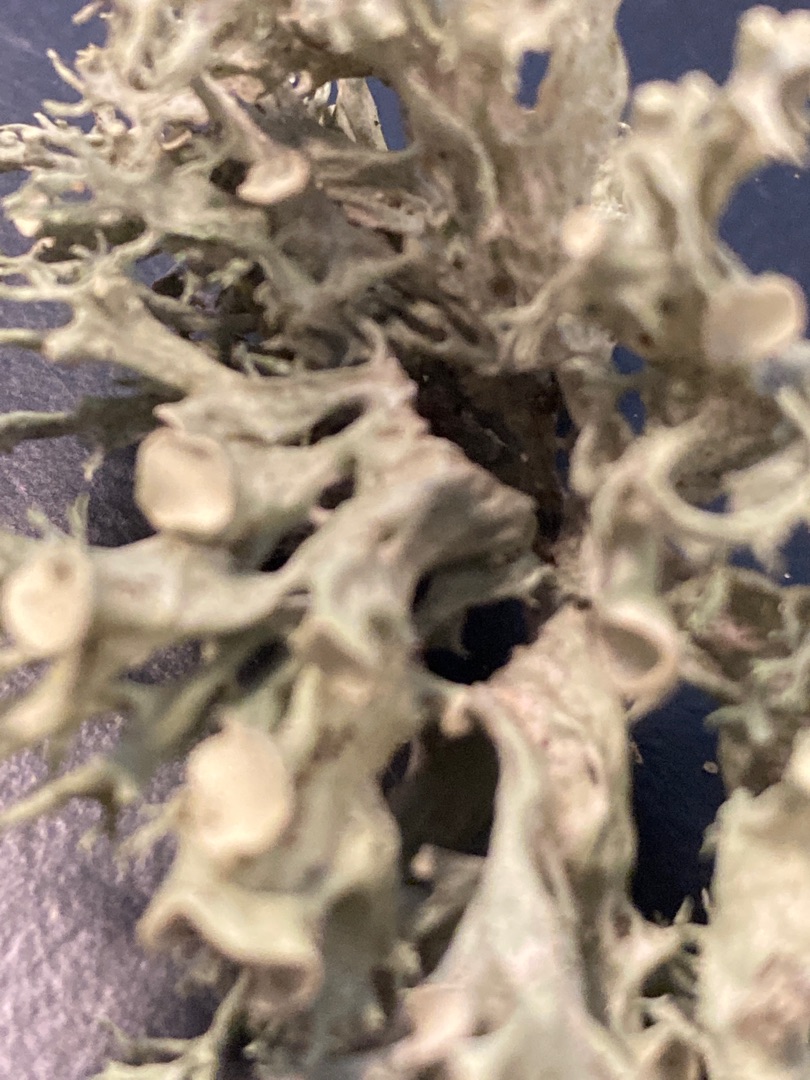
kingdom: Fungi
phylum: Ascomycota
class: Lecanoromycetes
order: Lecanorales
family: Ramalinaceae
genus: Ramalina
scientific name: Ramalina fastigiata
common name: Tue-grenlav
